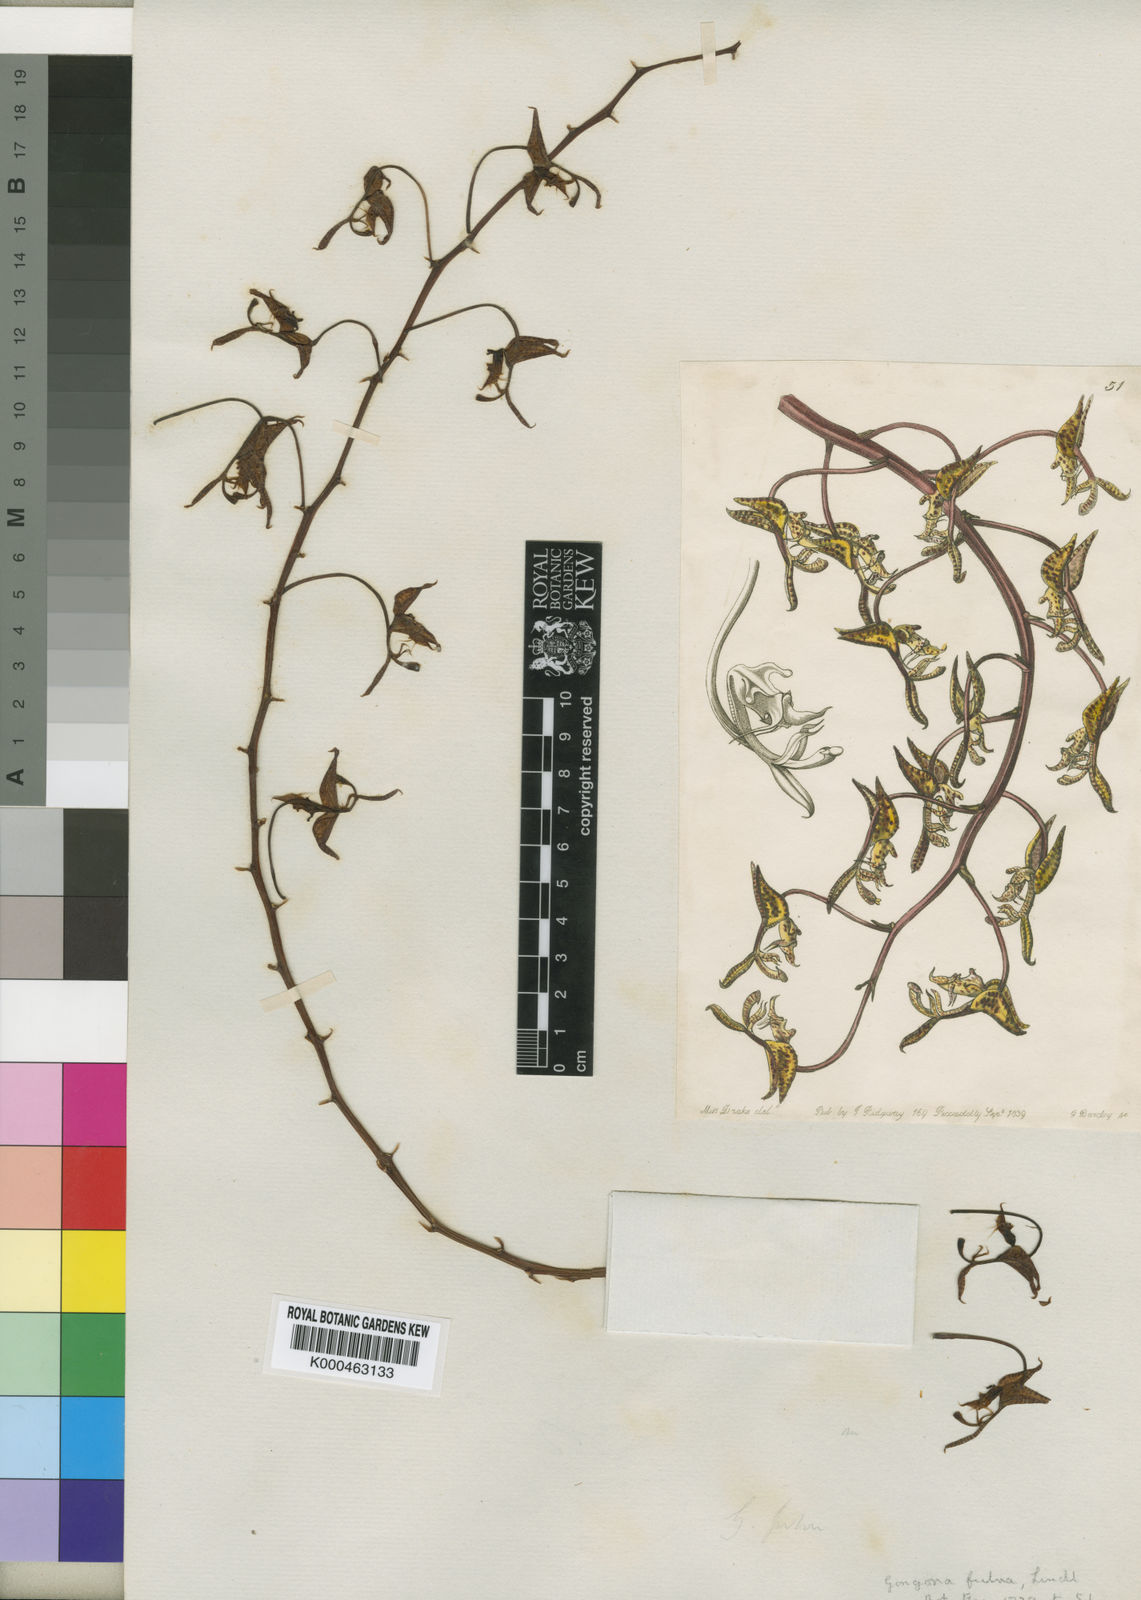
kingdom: Plantae
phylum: Tracheophyta
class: Liliopsida
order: Asparagales
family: Orchidaceae
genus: Gongora
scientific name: Gongora fulva
